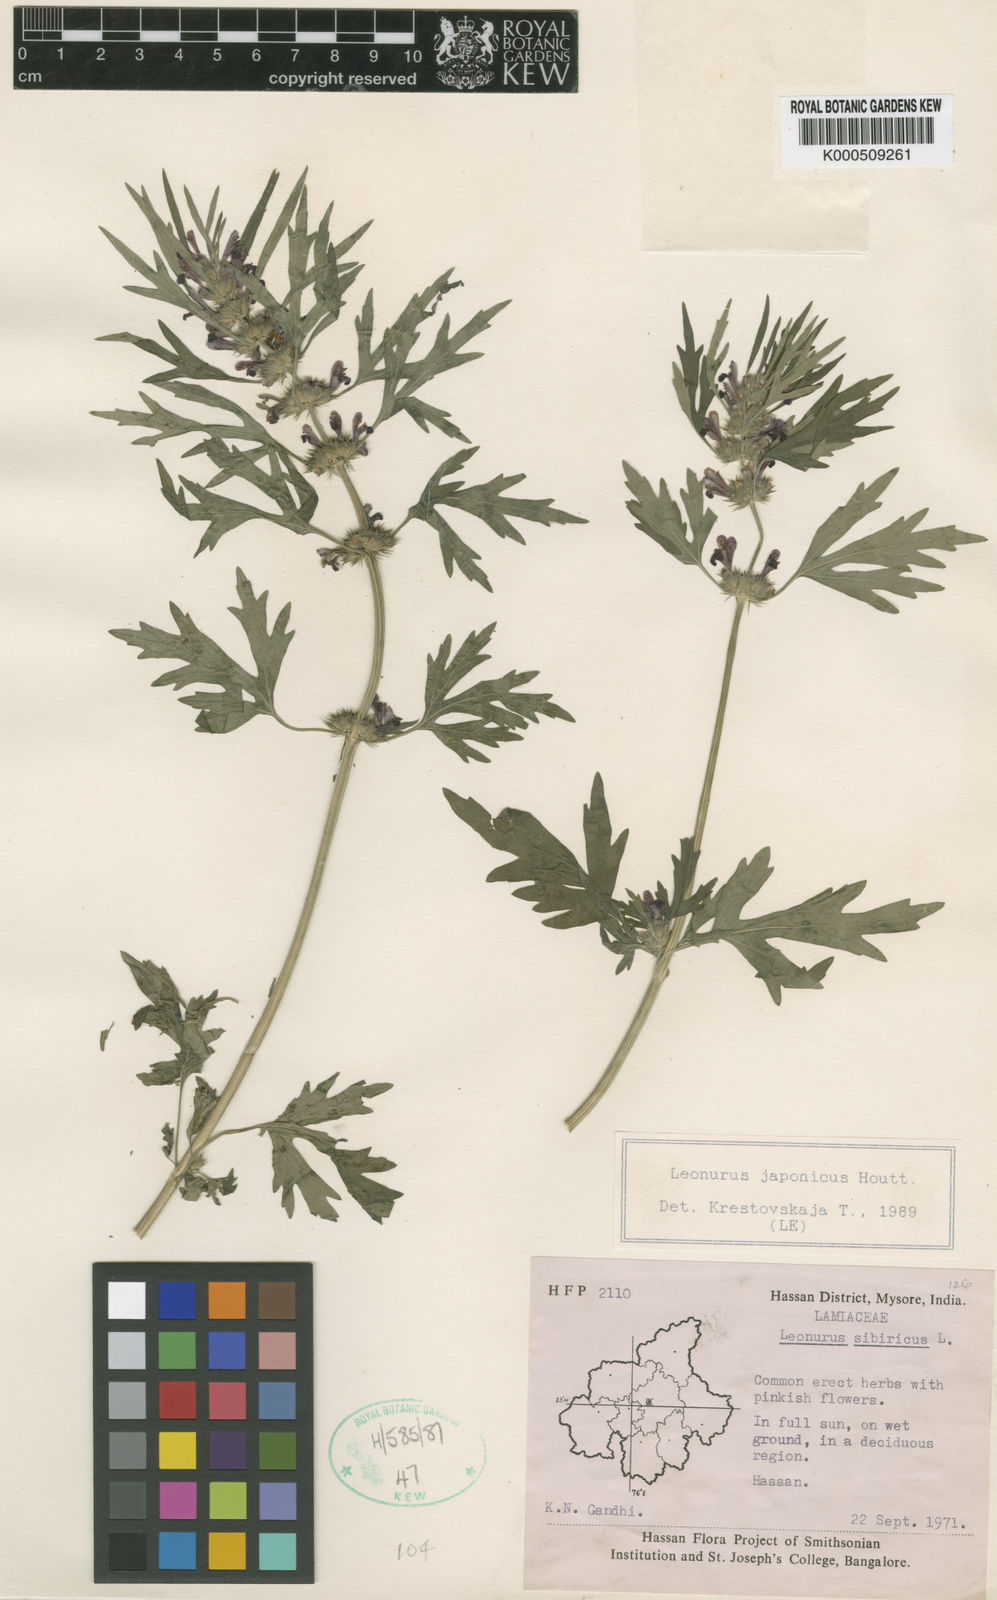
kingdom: Plantae
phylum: Tracheophyta
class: Magnoliopsida
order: Lamiales
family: Lamiaceae
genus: Leonurus
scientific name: Leonurus japonicus
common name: Honeyweed
